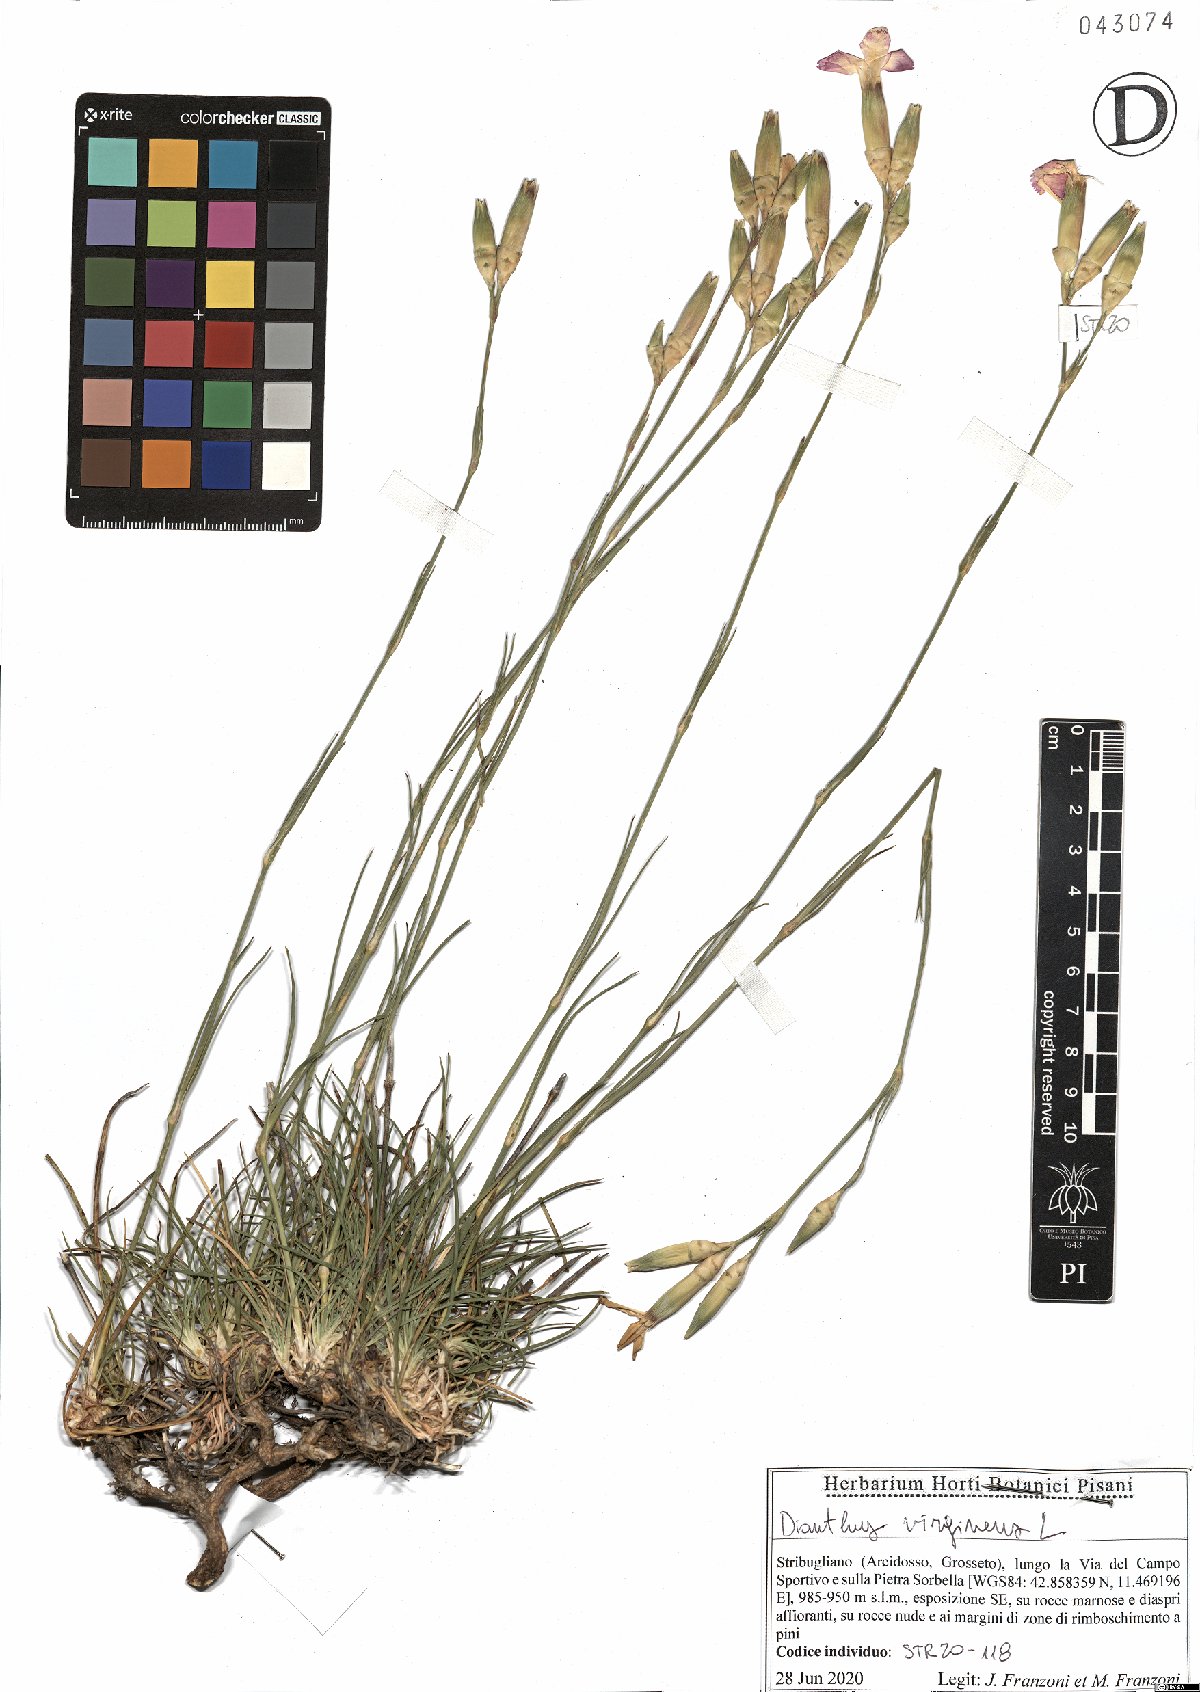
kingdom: Plantae
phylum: Tracheophyta
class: Magnoliopsida
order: Caryophyllales
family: Caryophyllaceae
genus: Dianthus
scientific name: Dianthus virgineus
